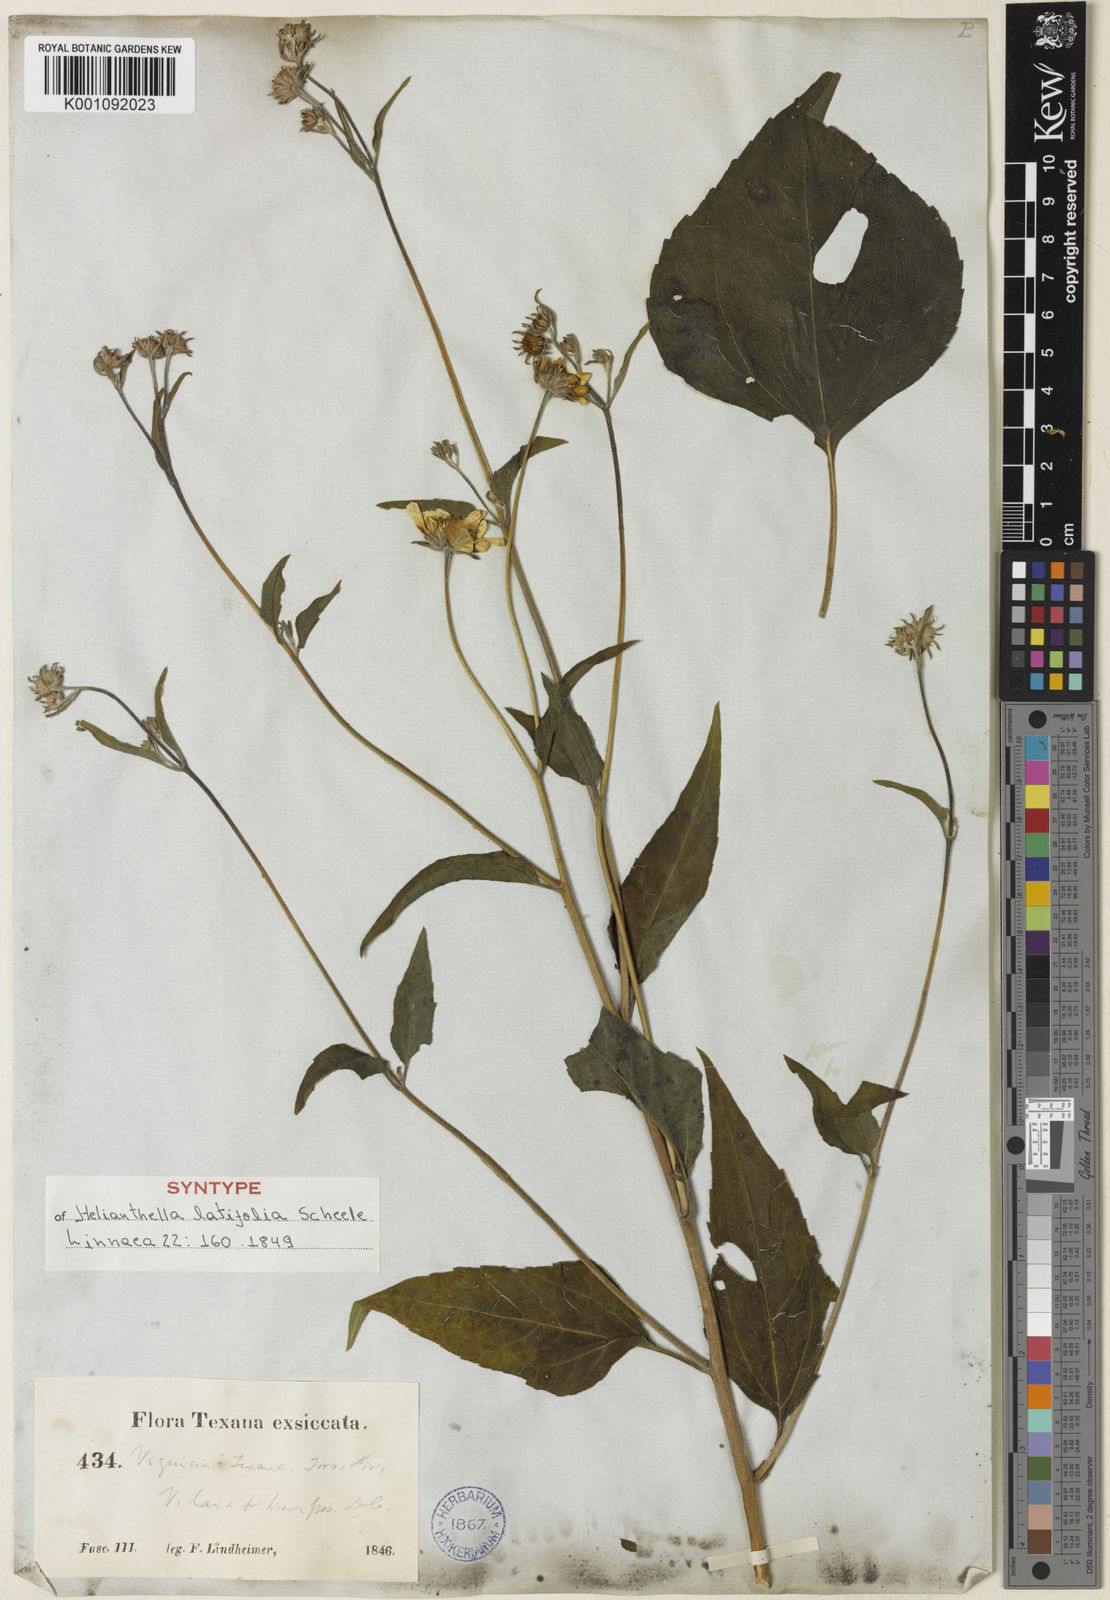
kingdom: Plantae
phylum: Tracheophyta
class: Magnoliopsida
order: Asterales
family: Asteraceae
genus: Viguiera
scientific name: Viguiera dentata
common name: Toothleaf
